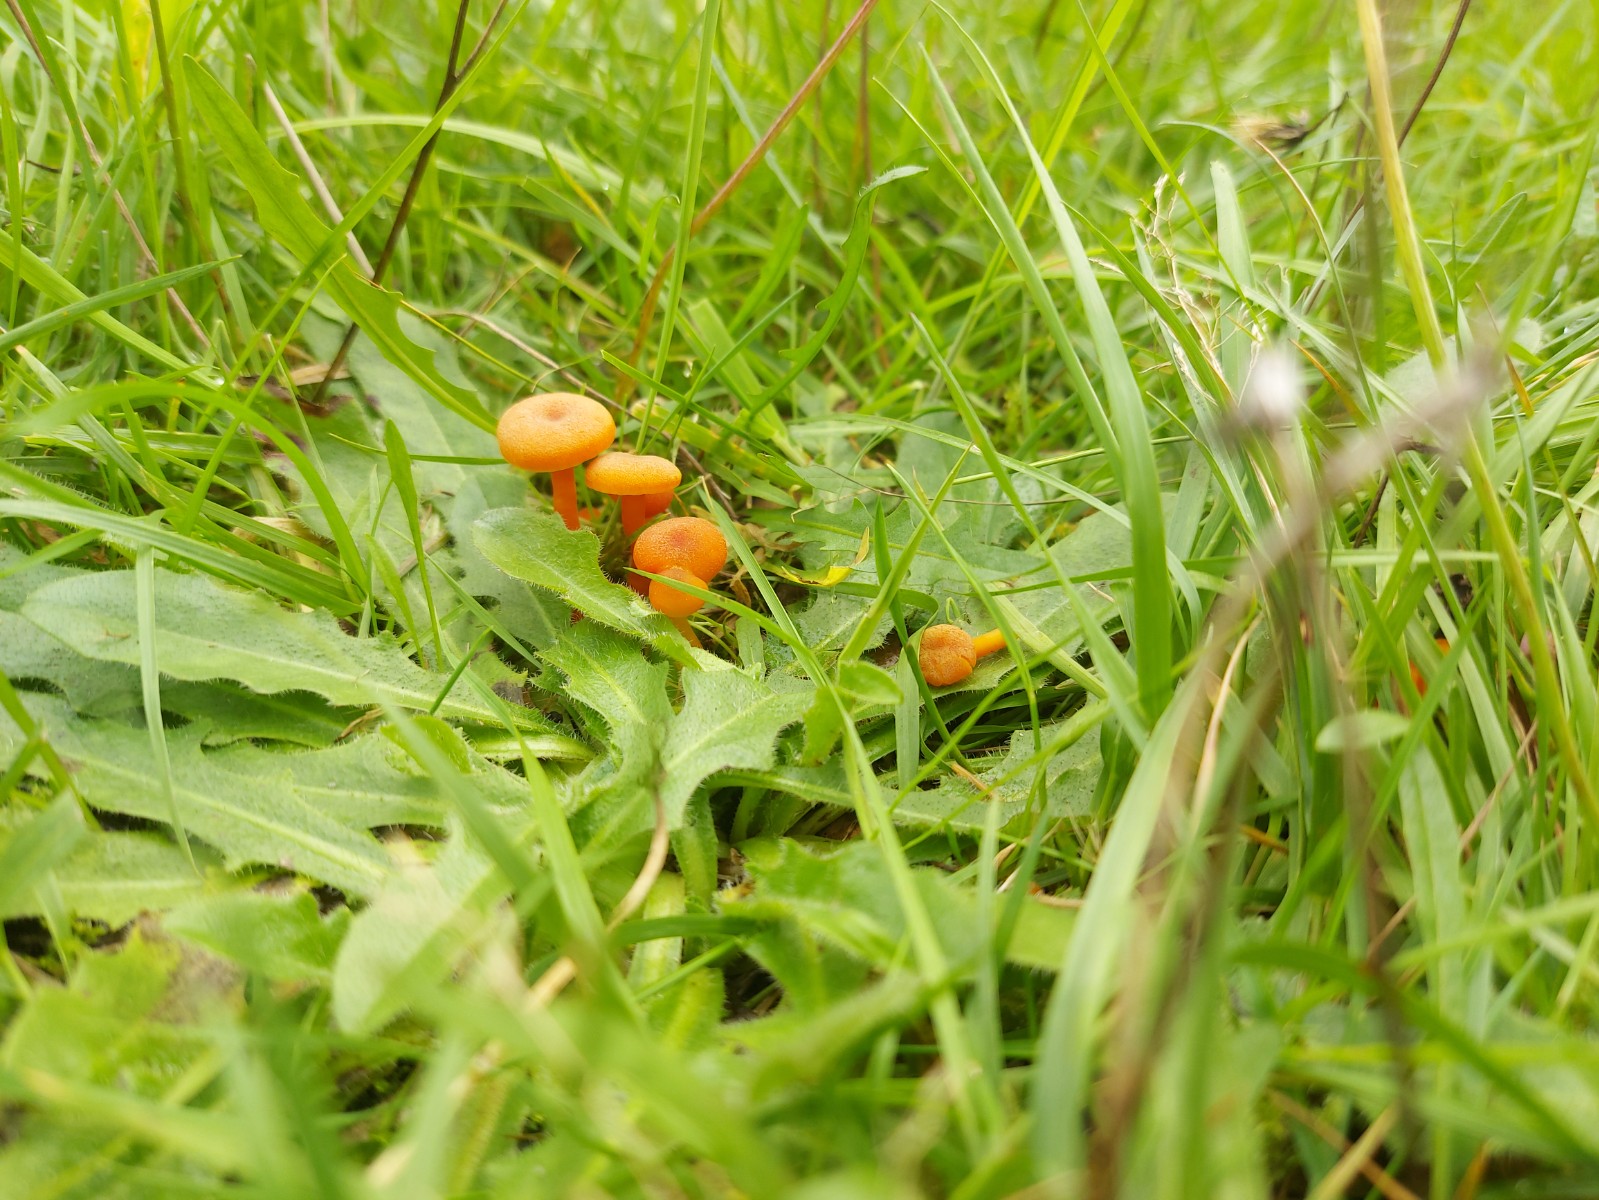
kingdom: Fungi
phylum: Basidiomycota
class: Agaricomycetes
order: Agaricales
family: Hygrophoraceae
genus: Hygrocybe
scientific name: Hygrocybe miniata
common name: mønje-vokshat
